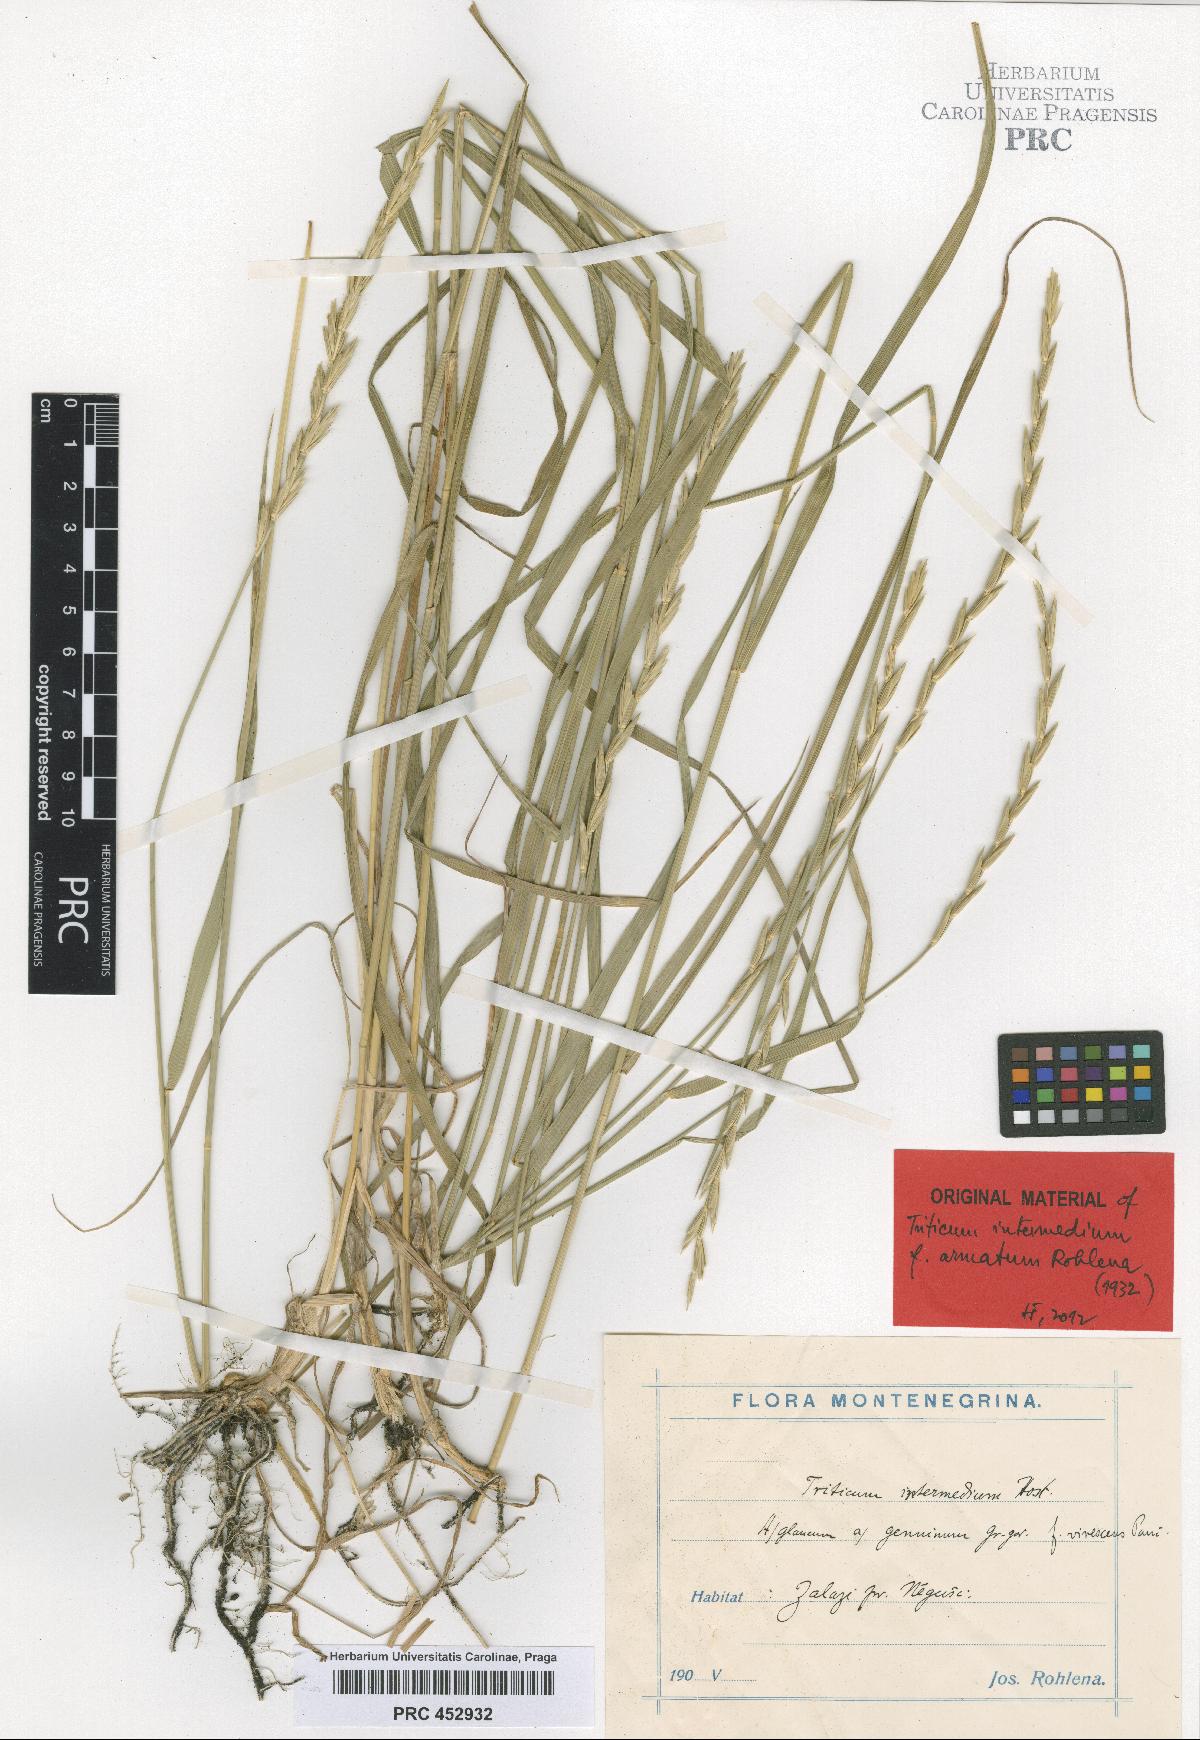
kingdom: Plantae
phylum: Tracheophyta
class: Liliopsida
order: Poales
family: Poaceae
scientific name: Poaceae
